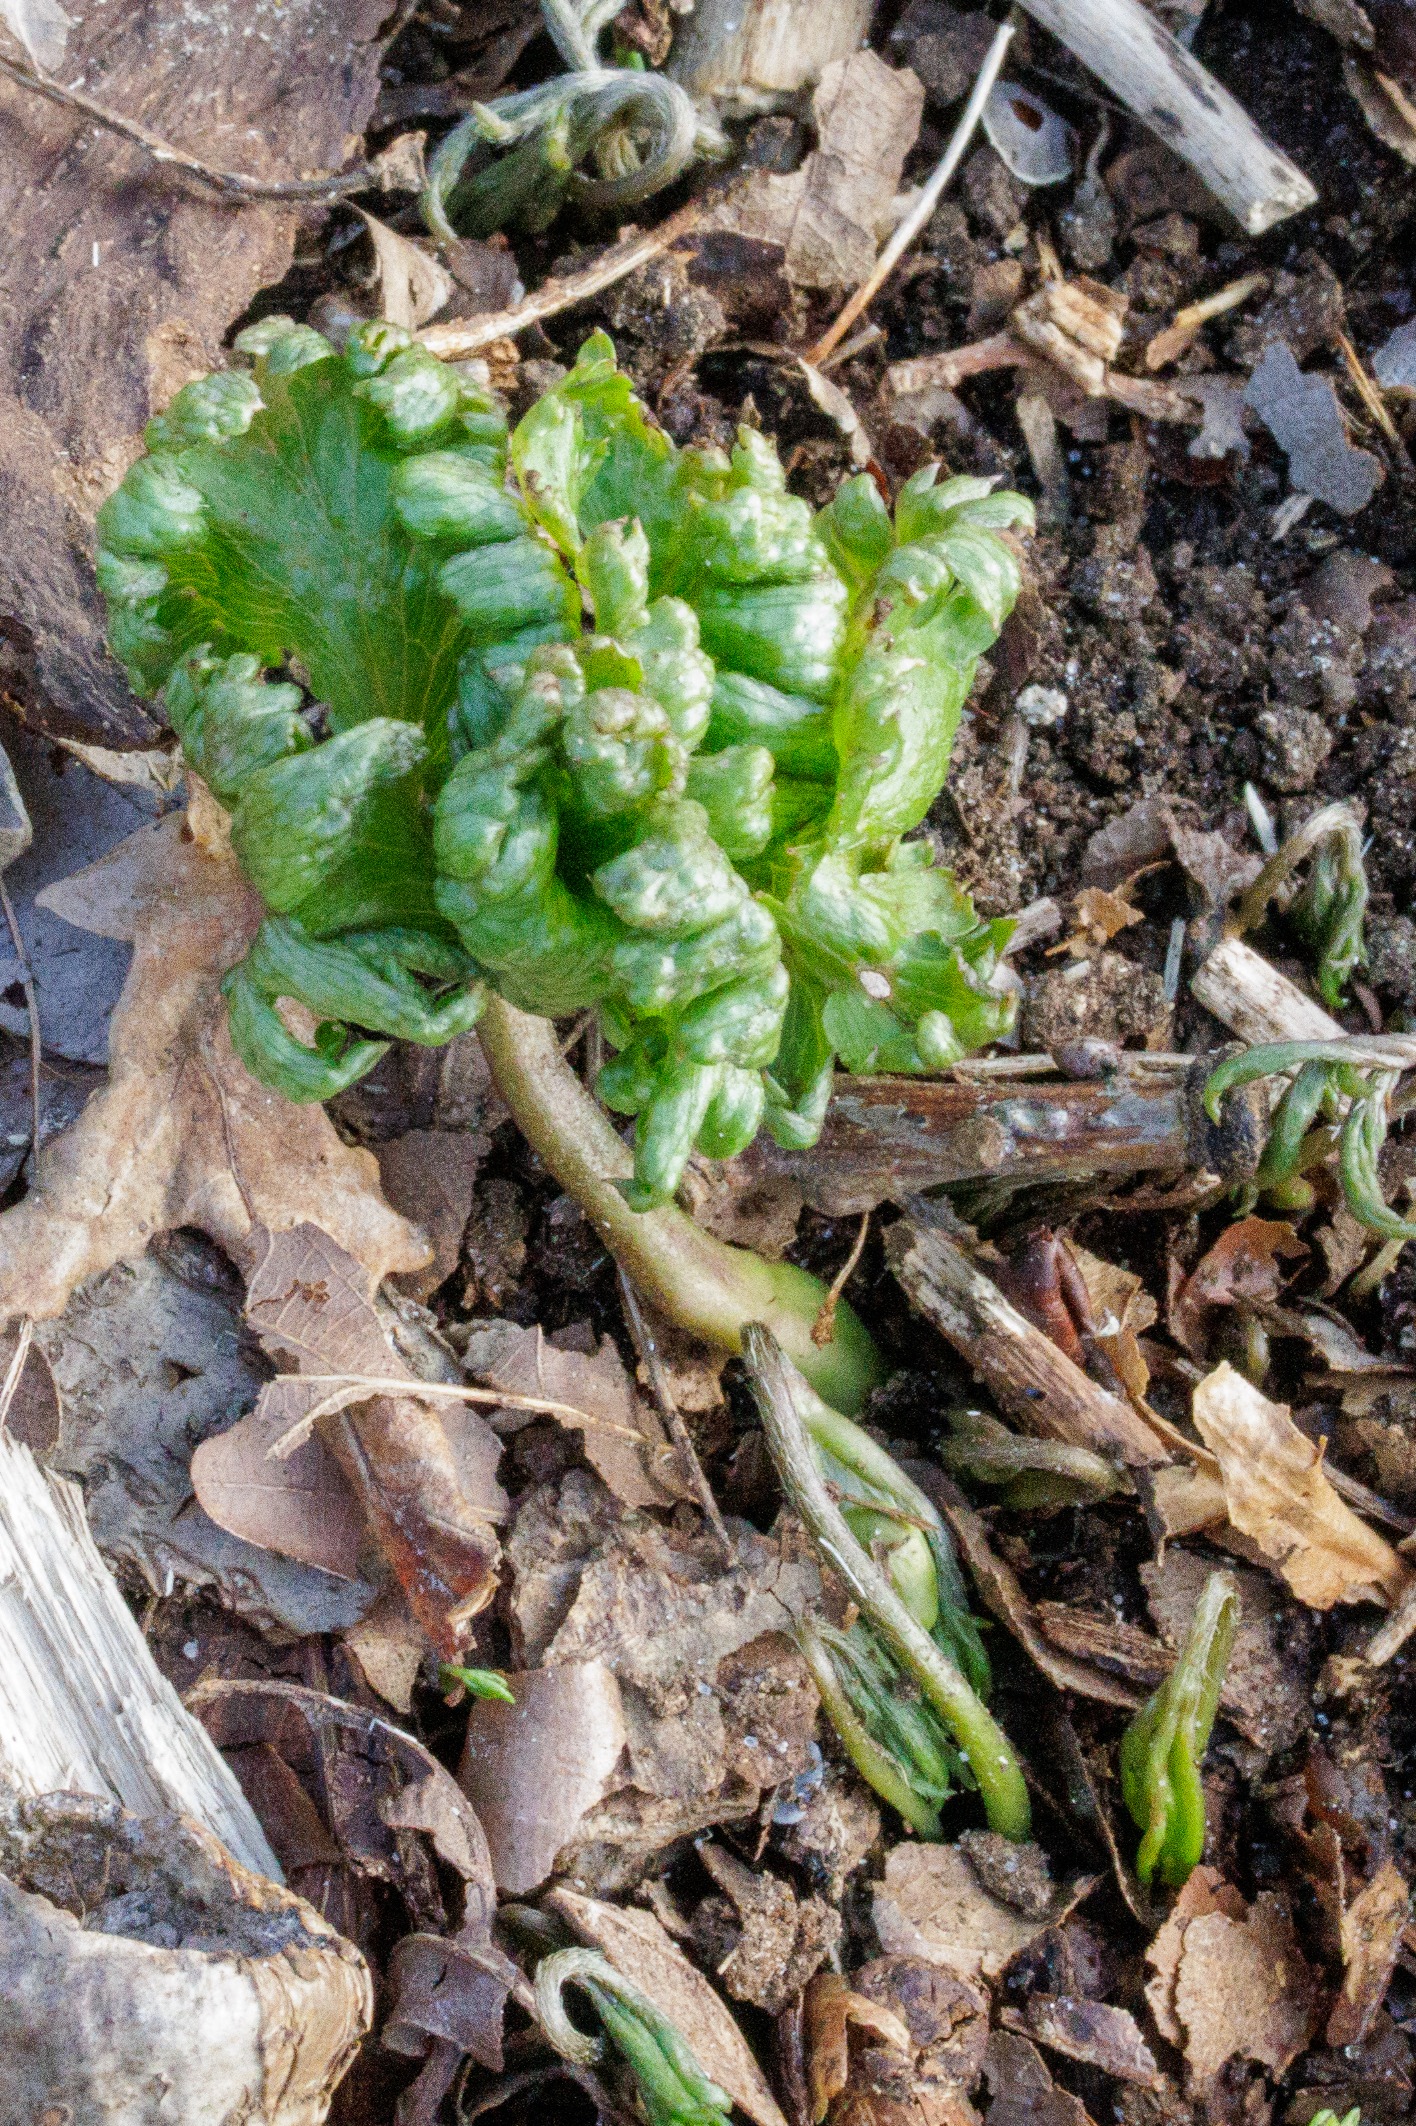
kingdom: Plantae
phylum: Tracheophyta
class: Magnoliopsida
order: Ranunculales
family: Ranunculaceae
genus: Anemone
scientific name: Anemone nemorosa
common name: Hvid anemone
